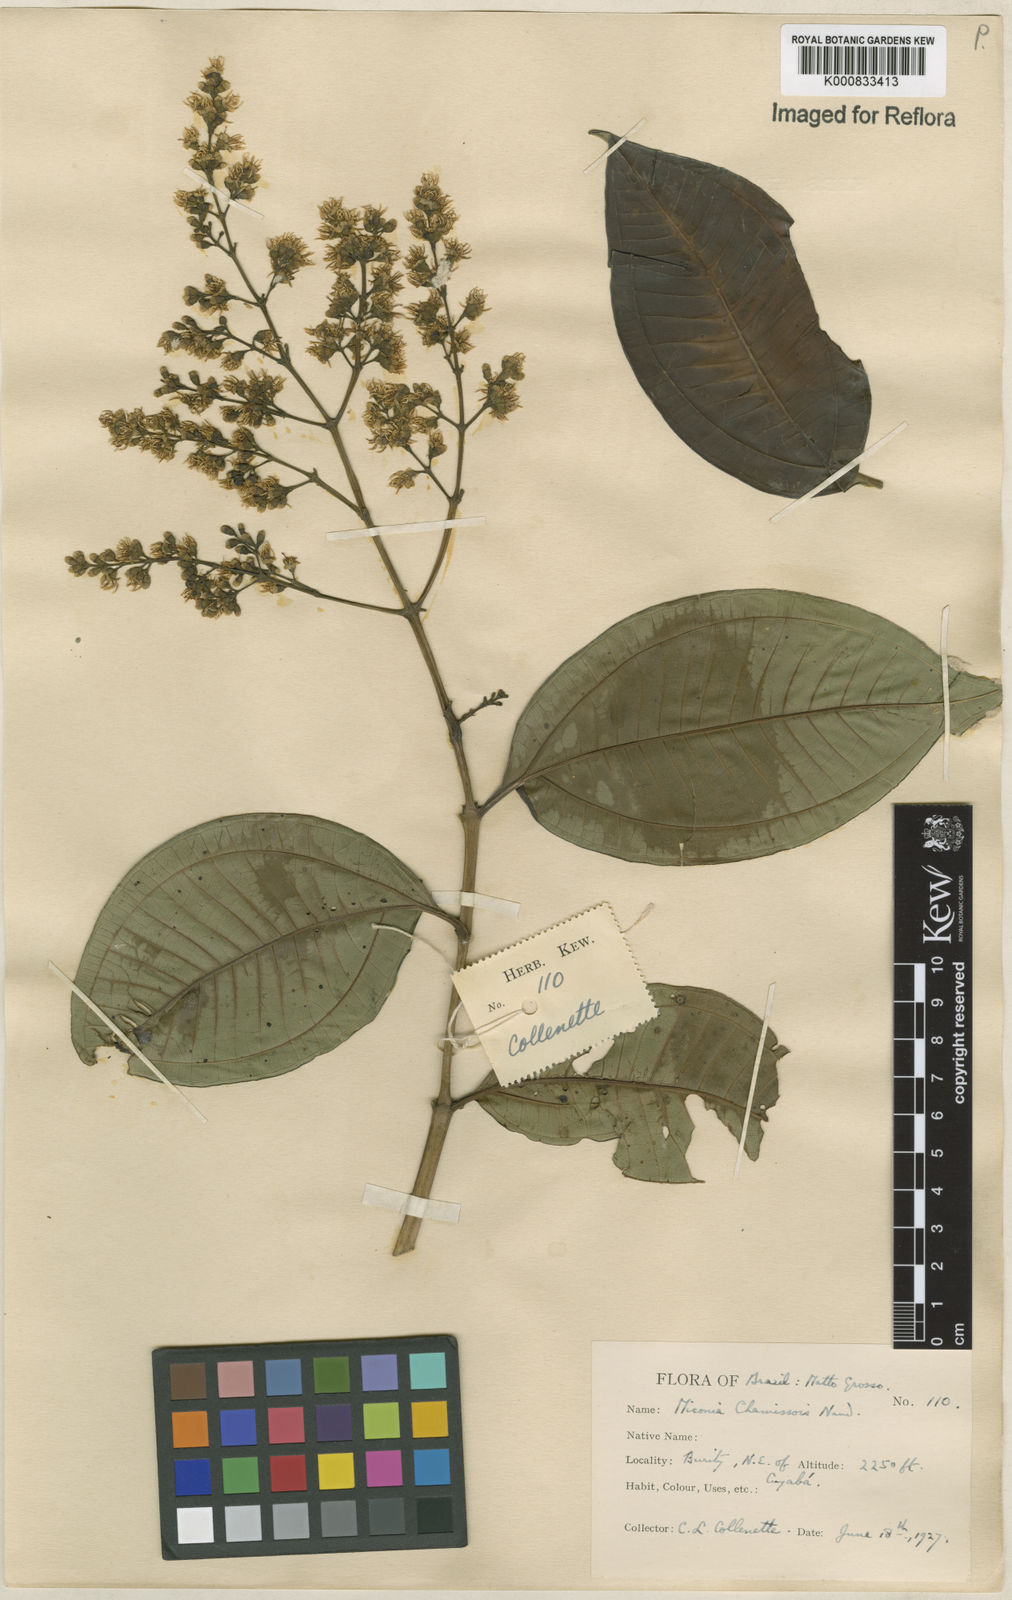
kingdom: Plantae
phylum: Tracheophyta
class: Magnoliopsida
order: Myrtales
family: Melastomataceae
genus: Miconia
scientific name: Miconia chamissois
